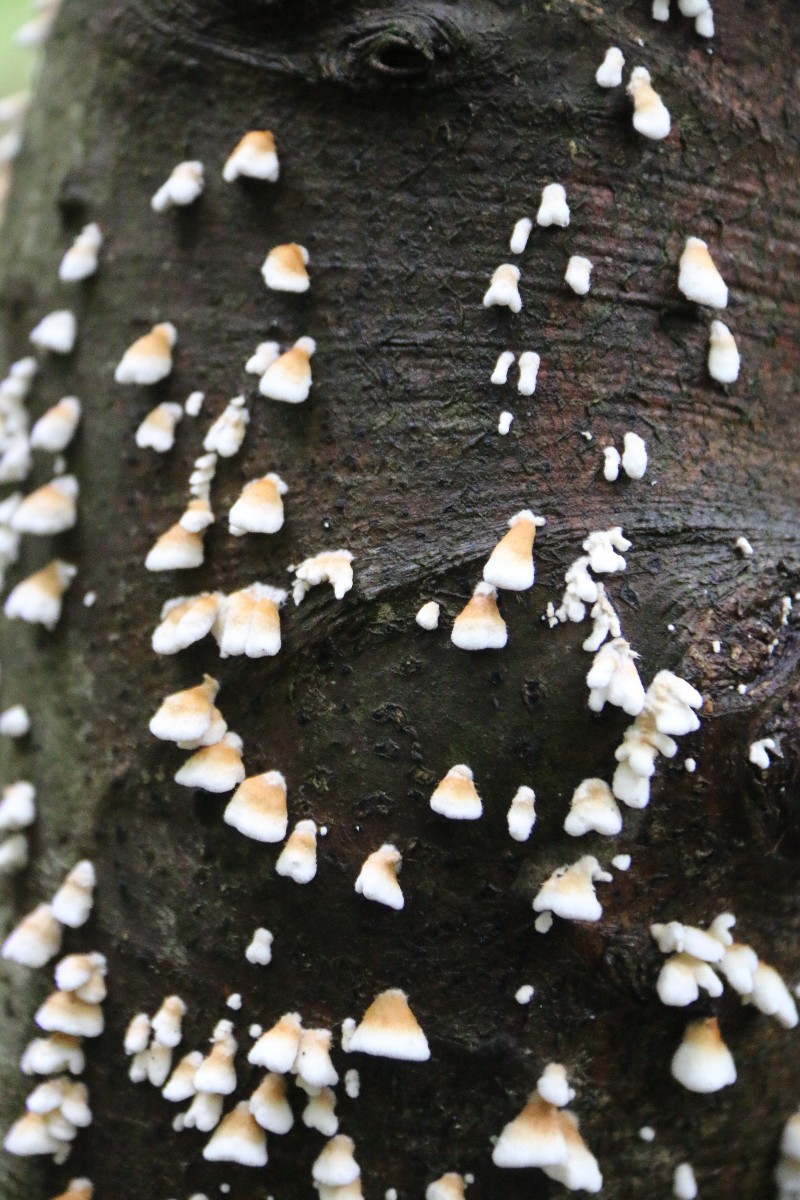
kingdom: Fungi
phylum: Basidiomycota
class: Agaricomycetes
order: Amylocorticiales
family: Amylocorticiaceae
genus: Plicaturopsis
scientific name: Plicaturopsis crispa
